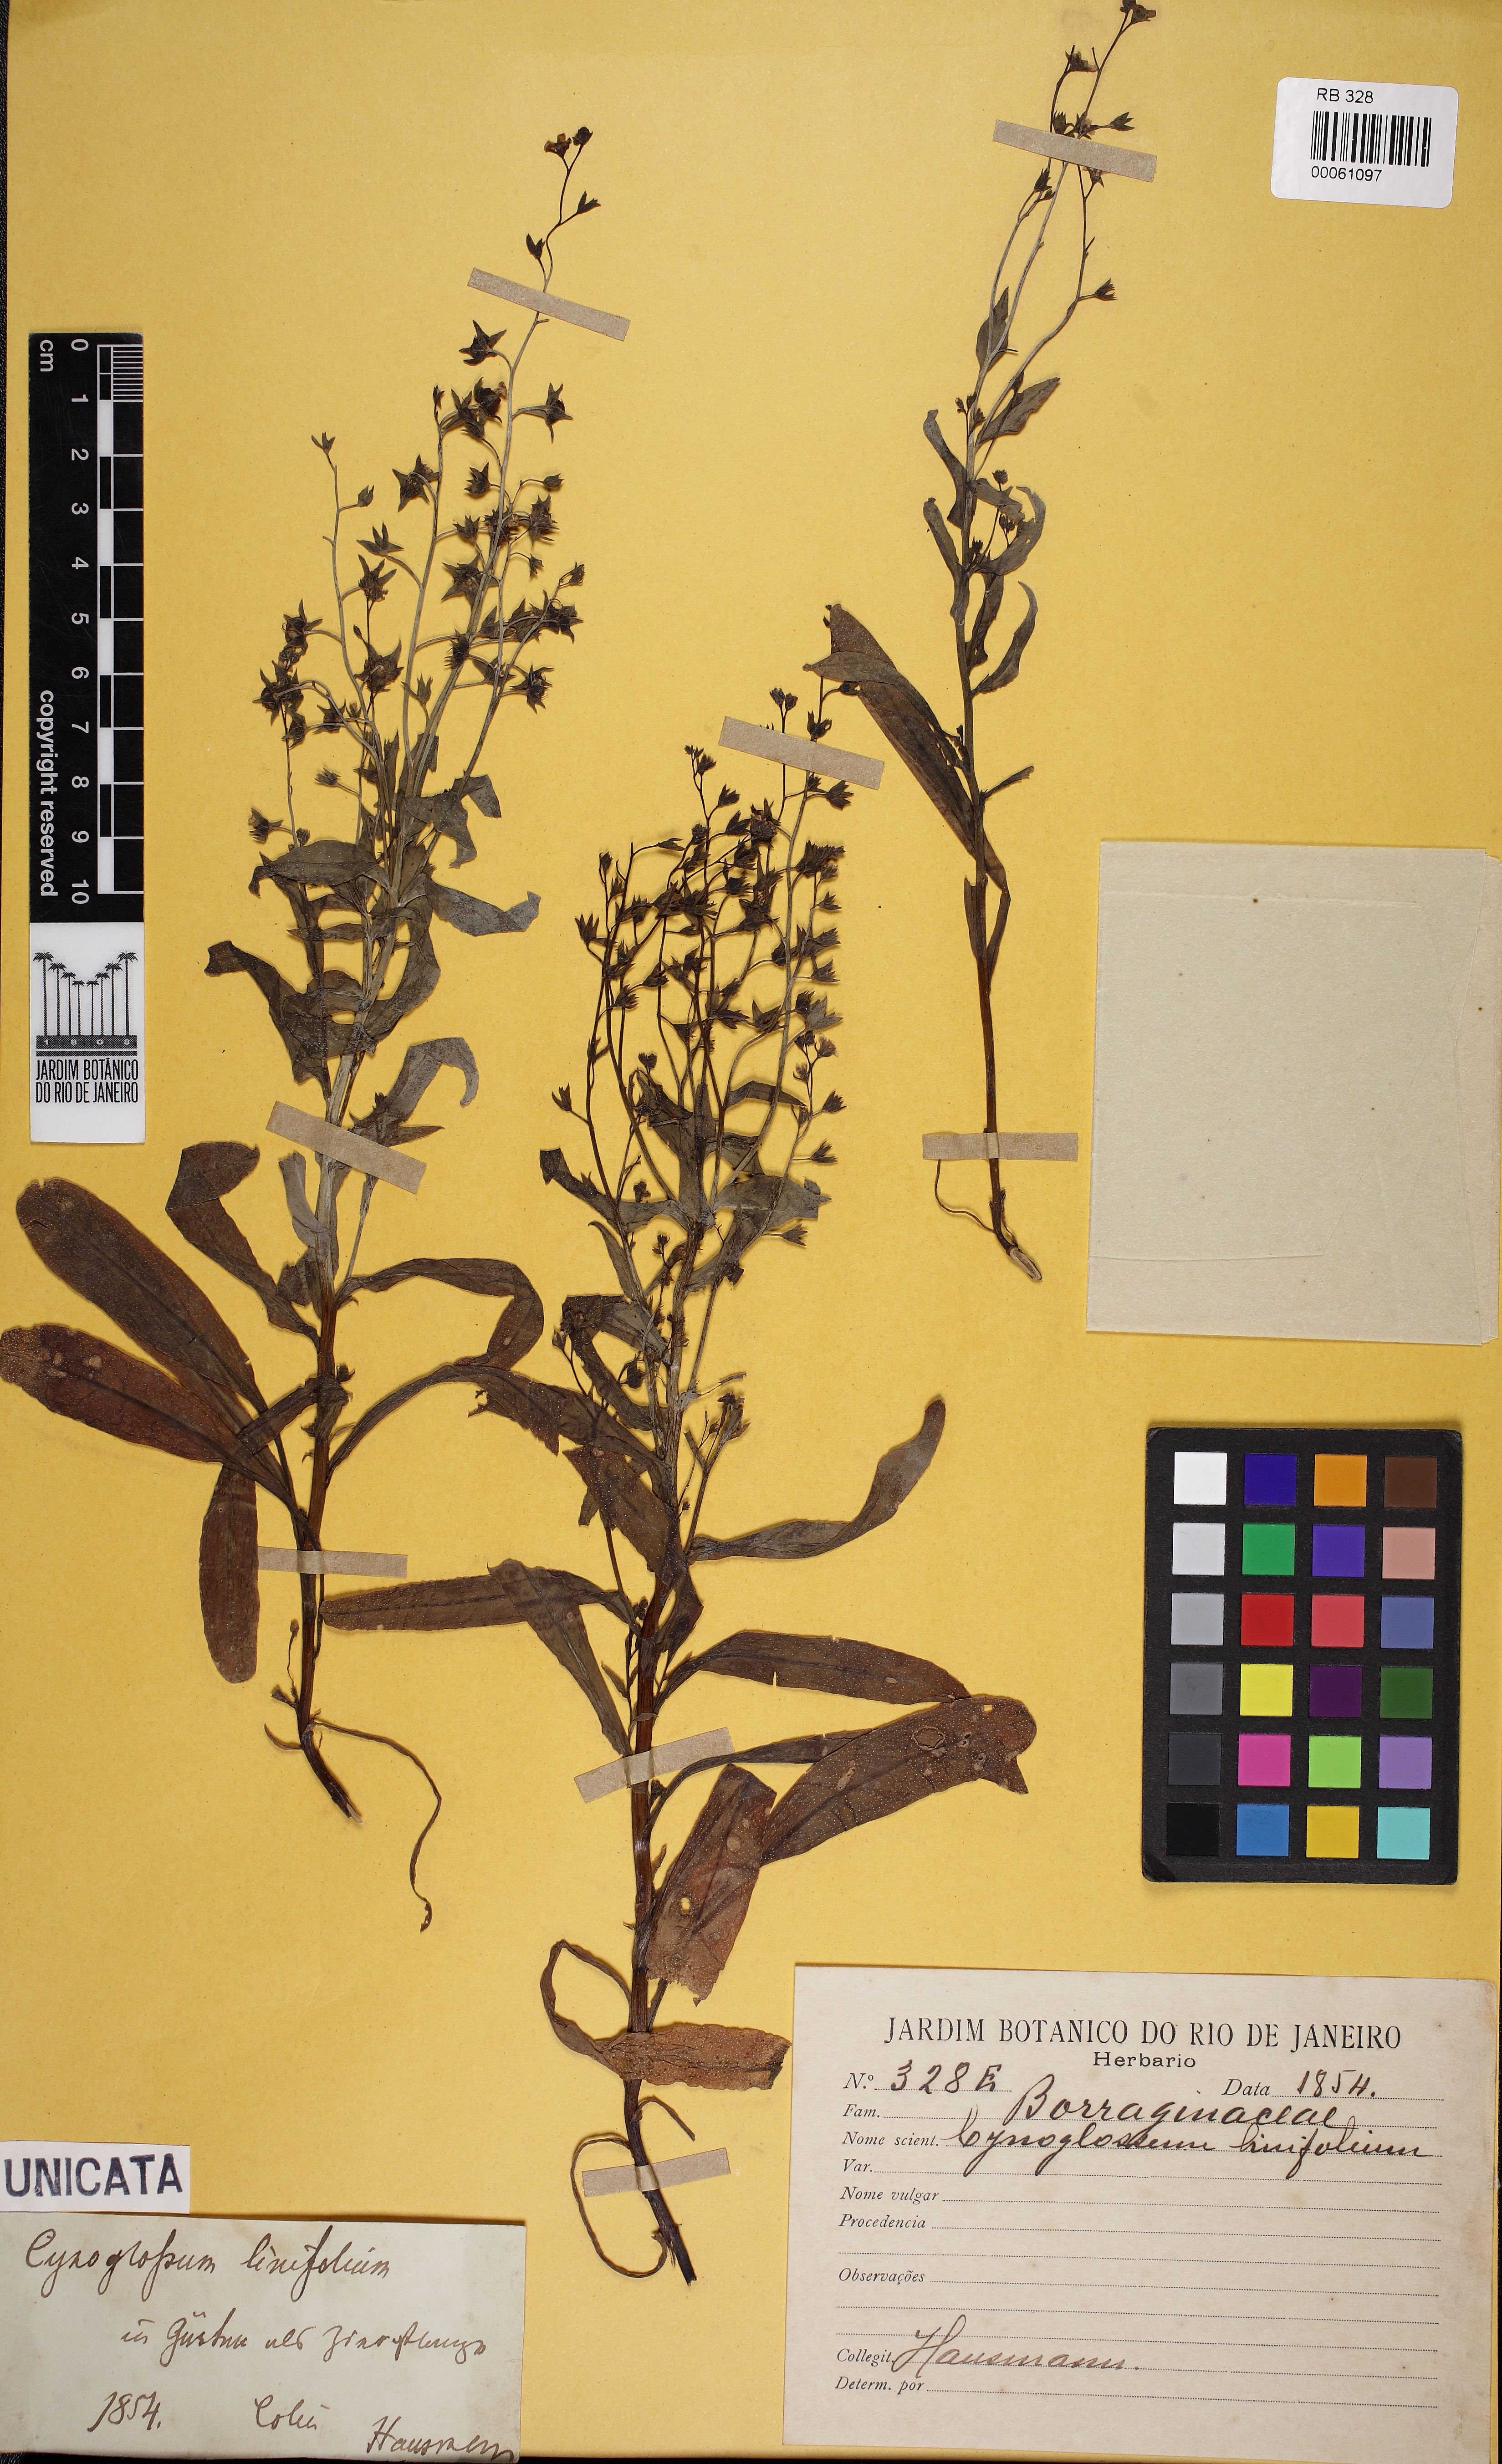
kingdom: Plantae
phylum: Tracheophyta
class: Magnoliopsida
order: Boraginales
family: Boraginaceae
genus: Iberodes
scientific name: Iberodes linifolia
